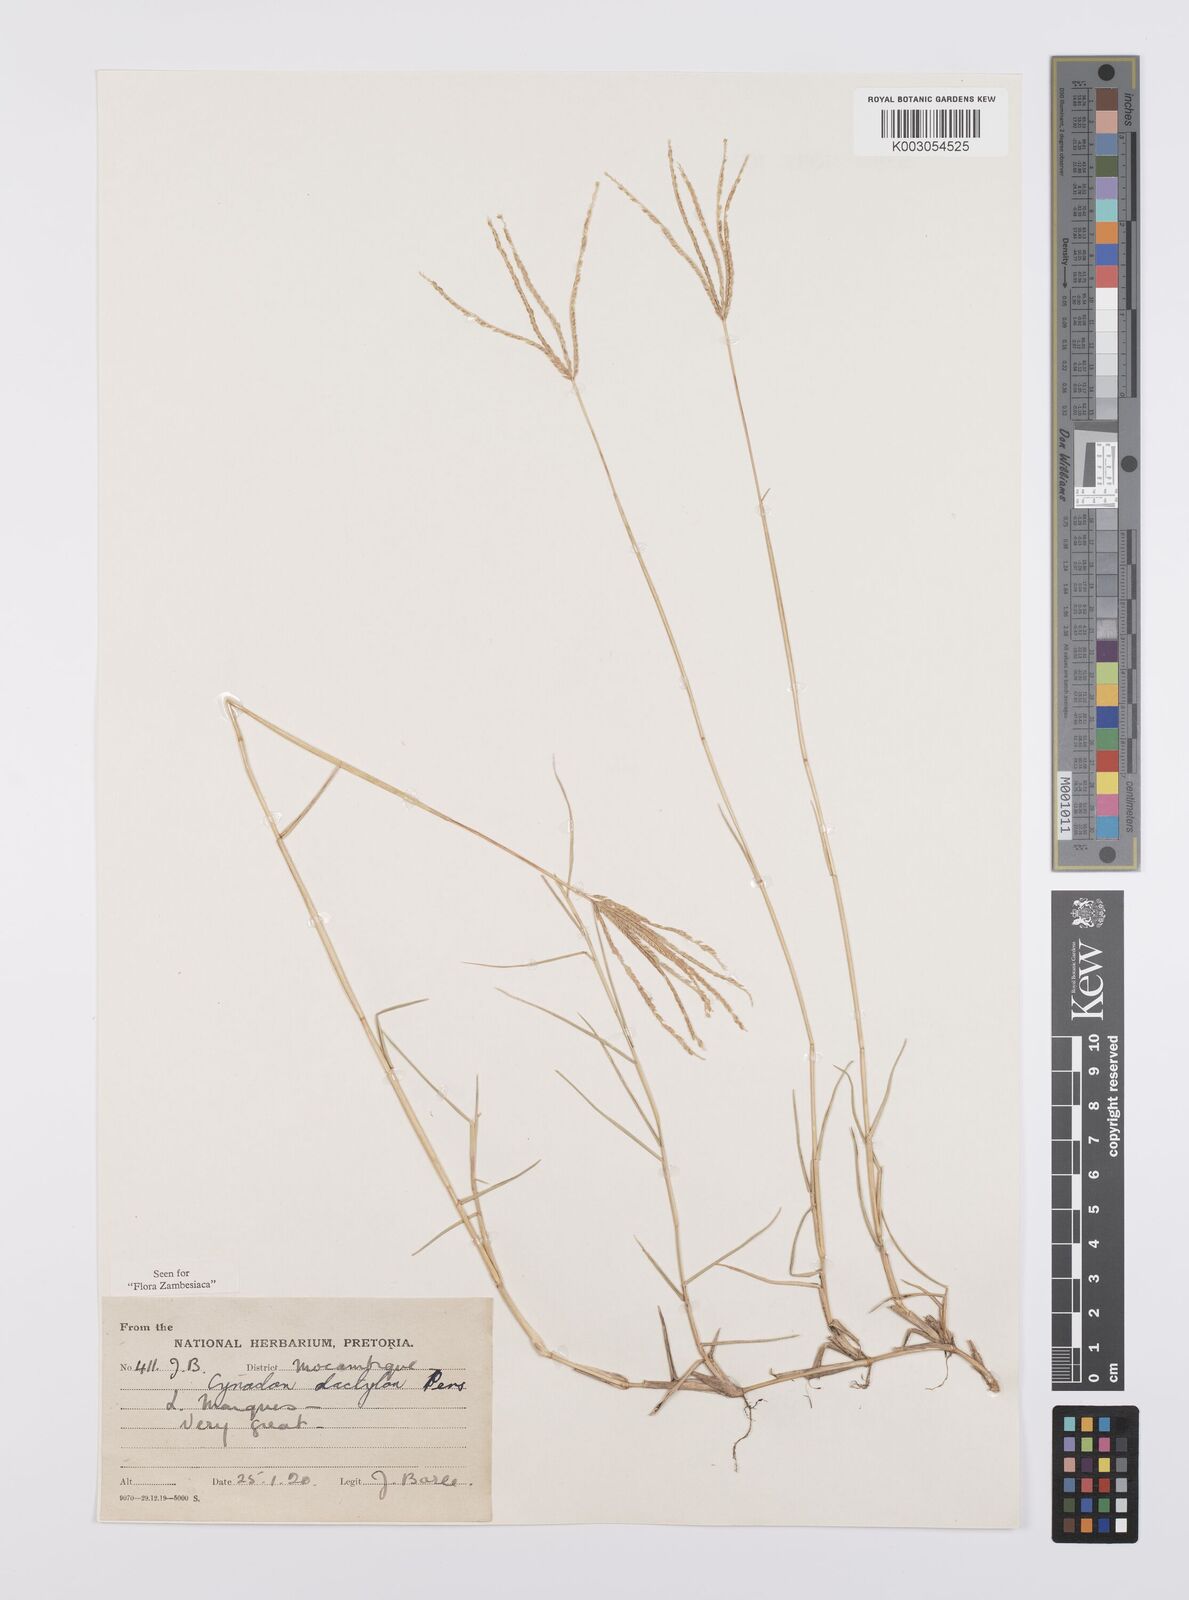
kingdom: Plantae
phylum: Tracheophyta
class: Liliopsida
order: Poales
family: Poaceae
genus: Cynodon
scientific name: Cynodon dactylon
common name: Bermuda grass
